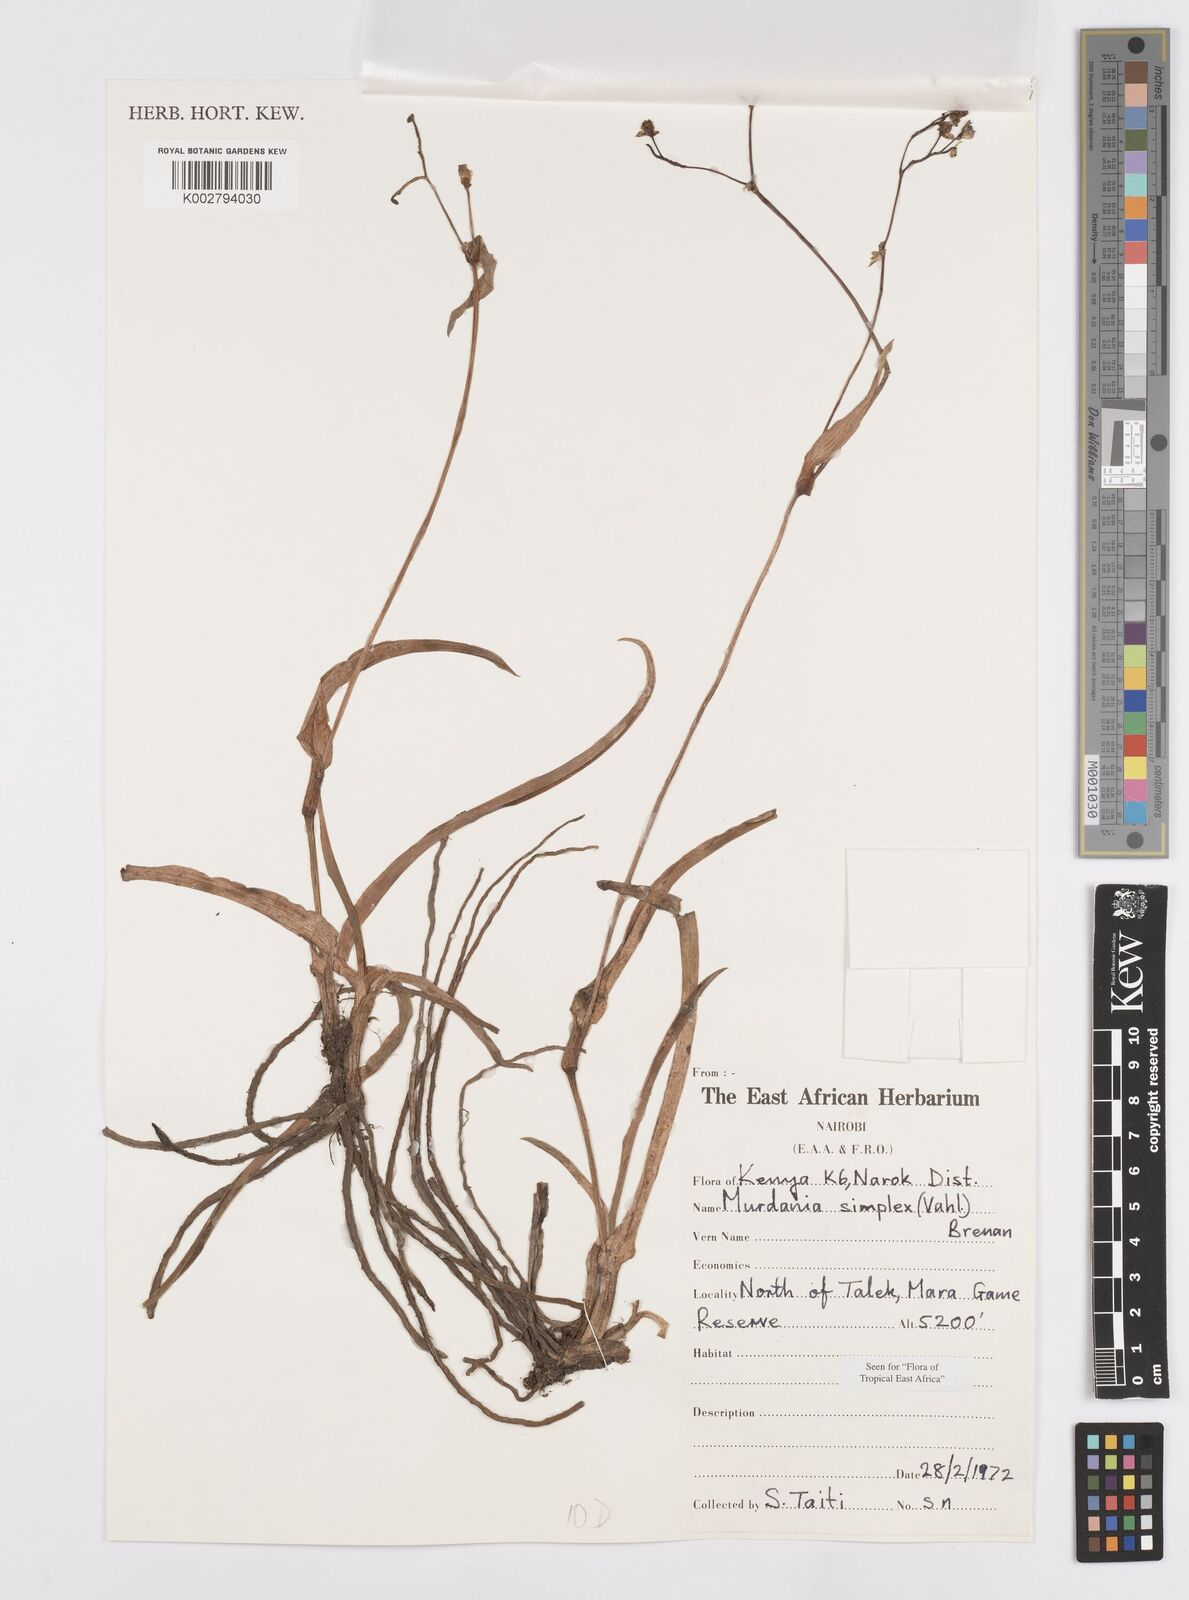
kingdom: Plantae
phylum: Tracheophyta
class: Liliopsida
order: Commelinales
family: Commelinaceae
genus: Murdannia
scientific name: Murdannia simplex
